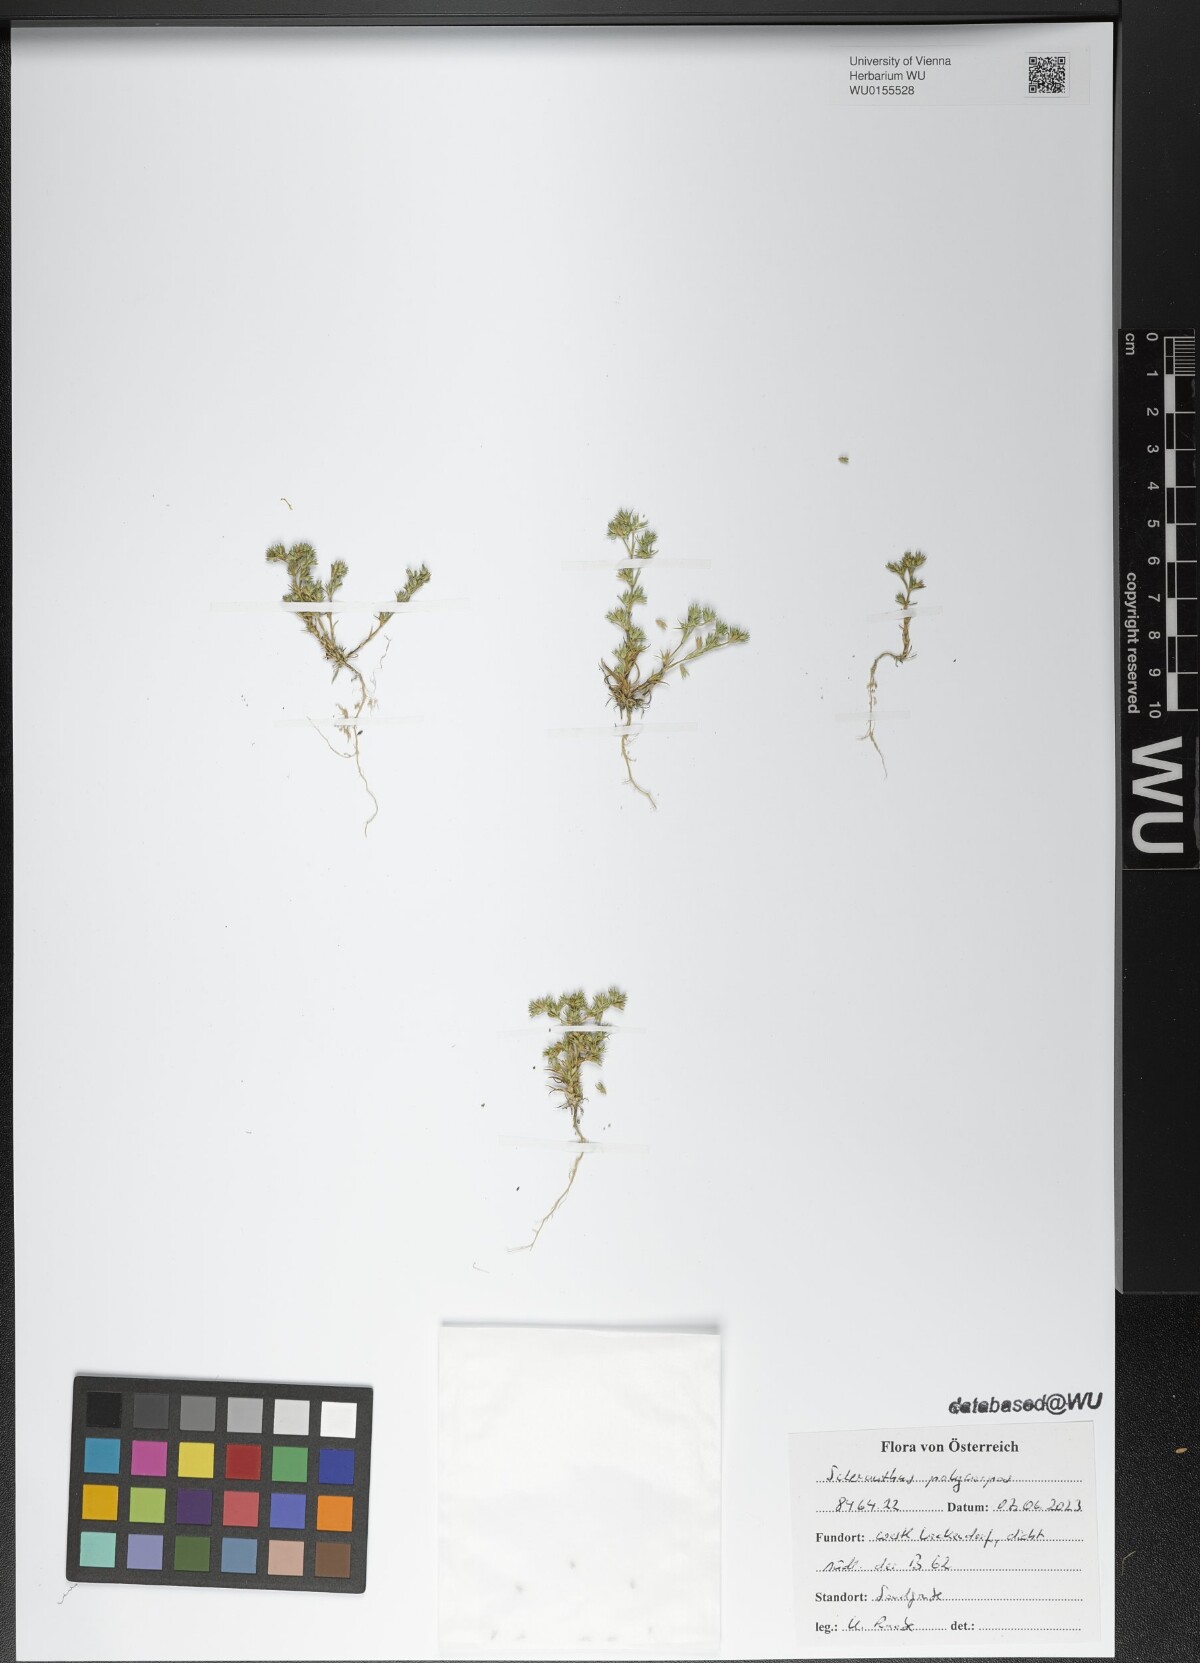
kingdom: Plantae
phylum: Tracheophyta
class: Magnoliopsida
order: Caryophyllales
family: Caryophyllaceae
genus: Scleranthus
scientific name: Scleranthus annuus
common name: Annual knawel
